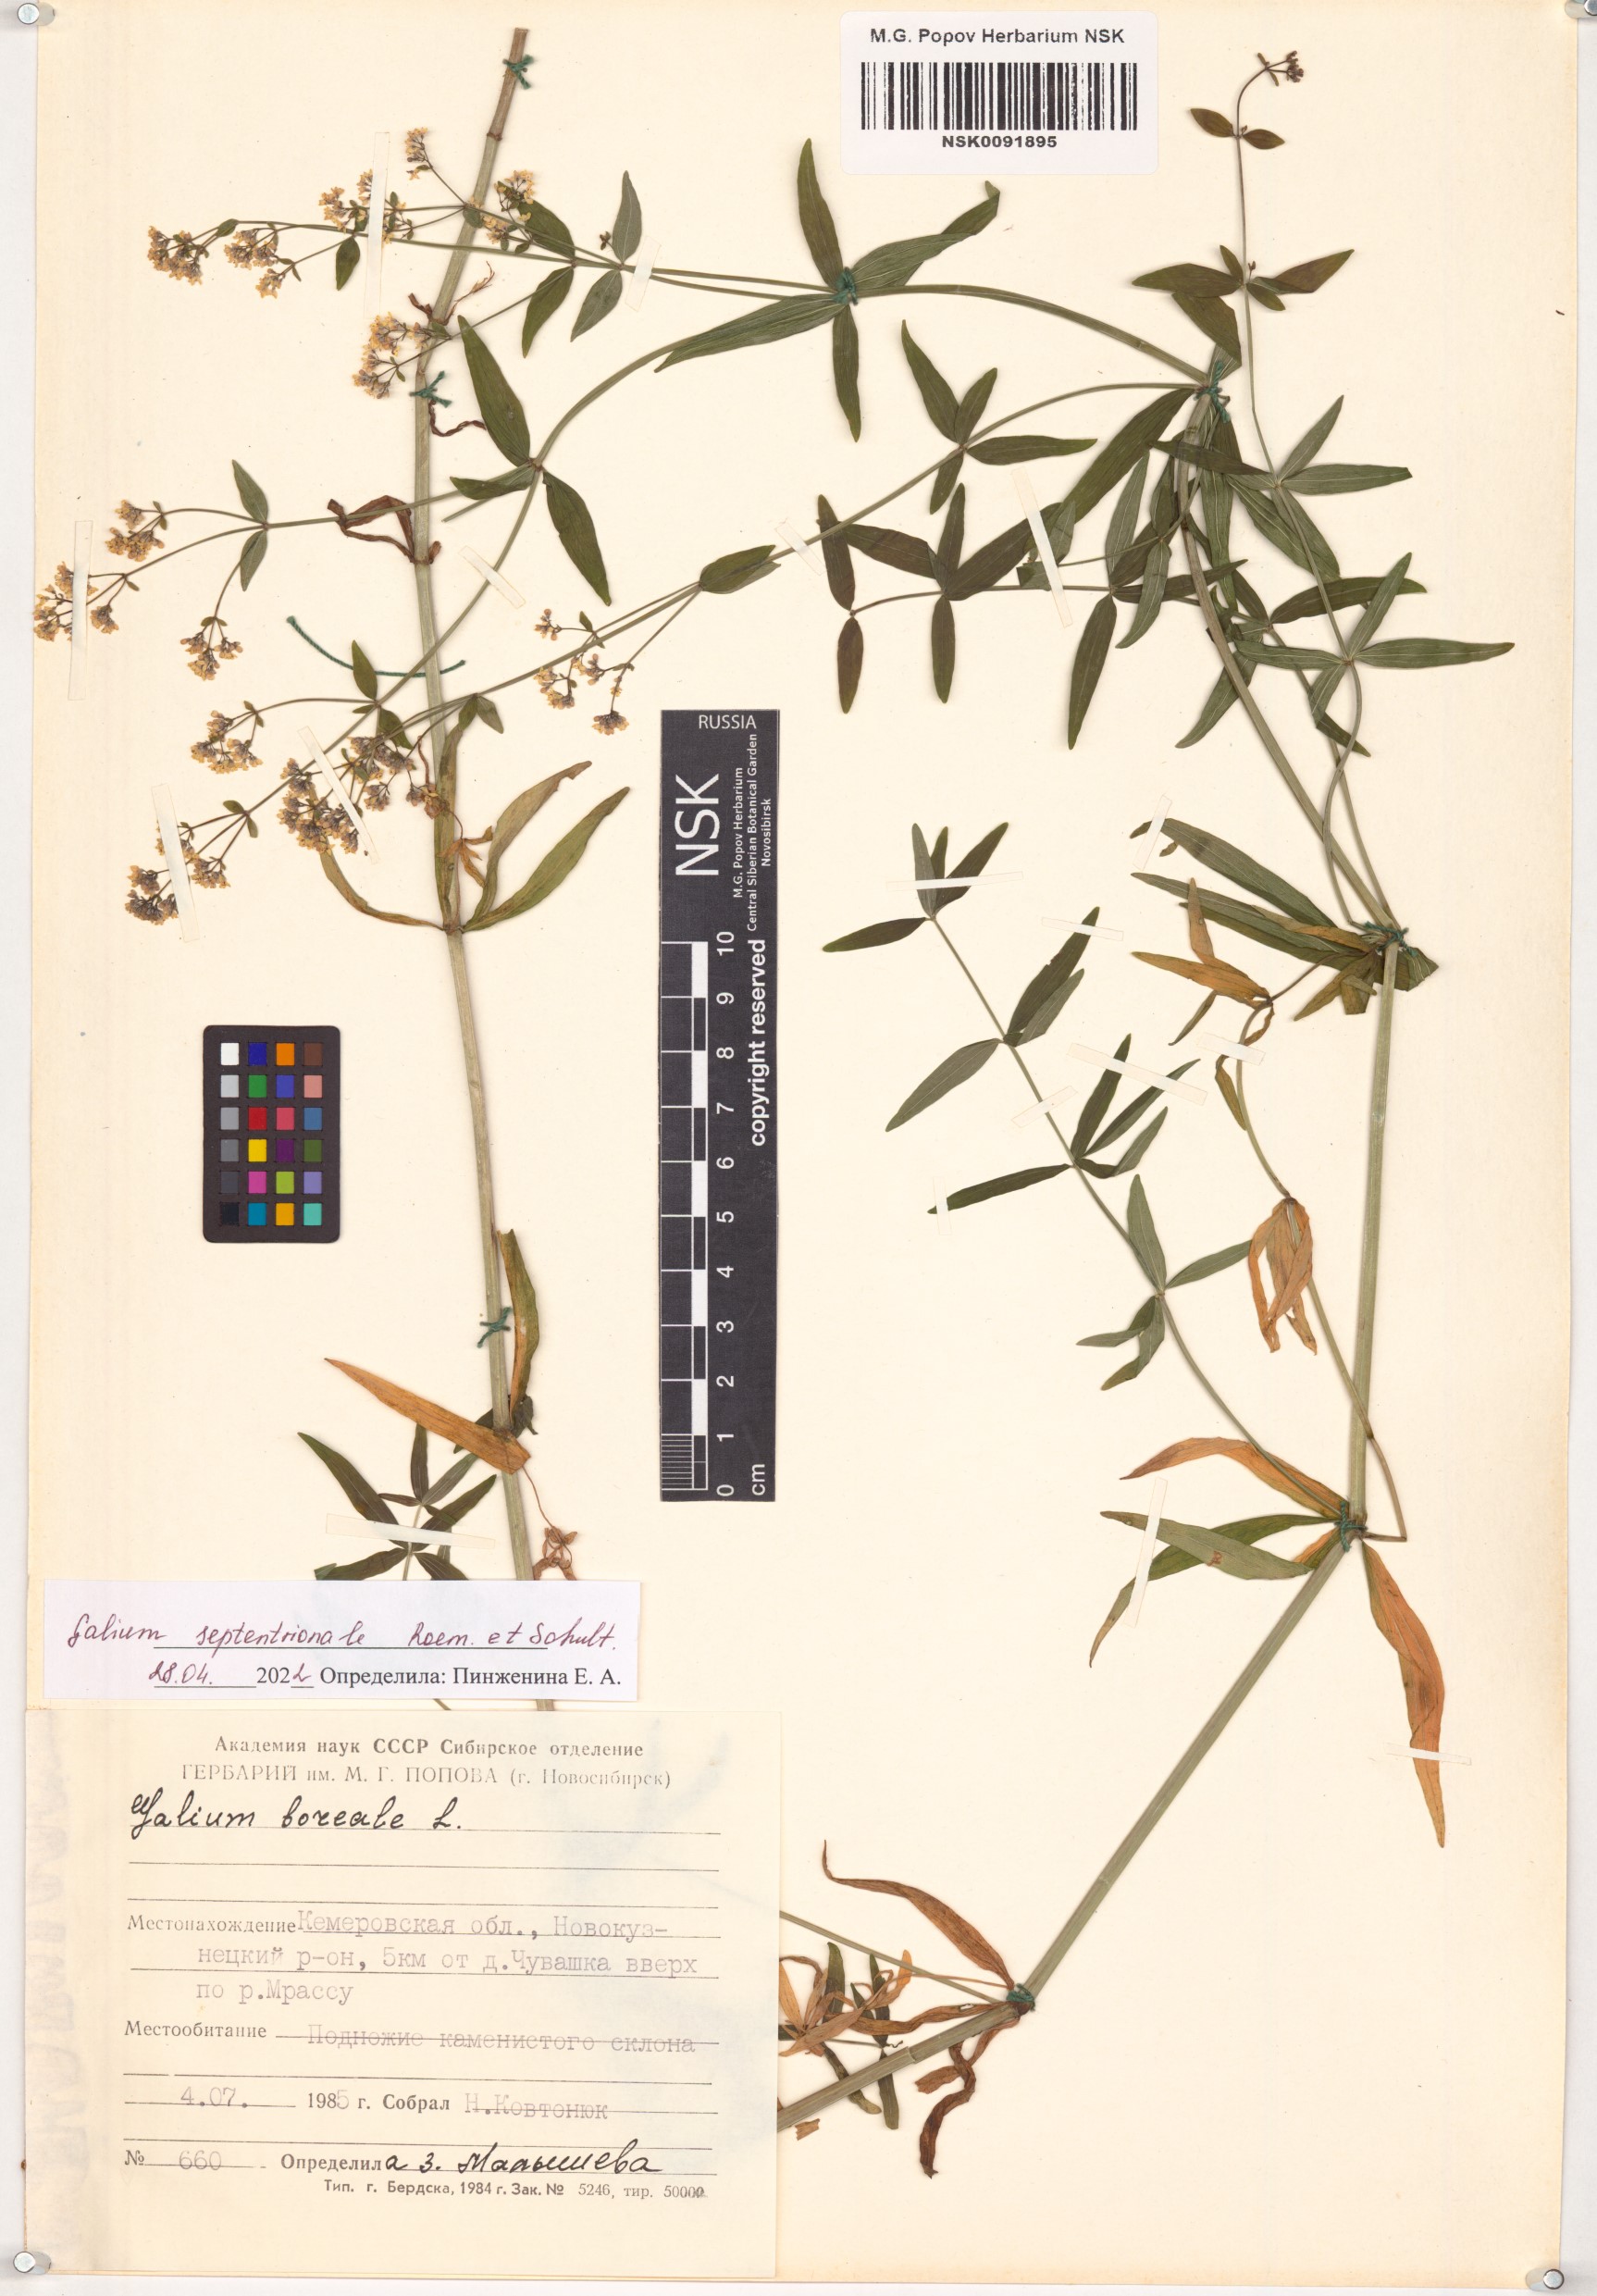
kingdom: Plantae
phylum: Tracheophyta
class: Magnoliopsida
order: Gentianales
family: Rubiaceae
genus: Galium
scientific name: Galium boreale
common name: Northern bedstraw
